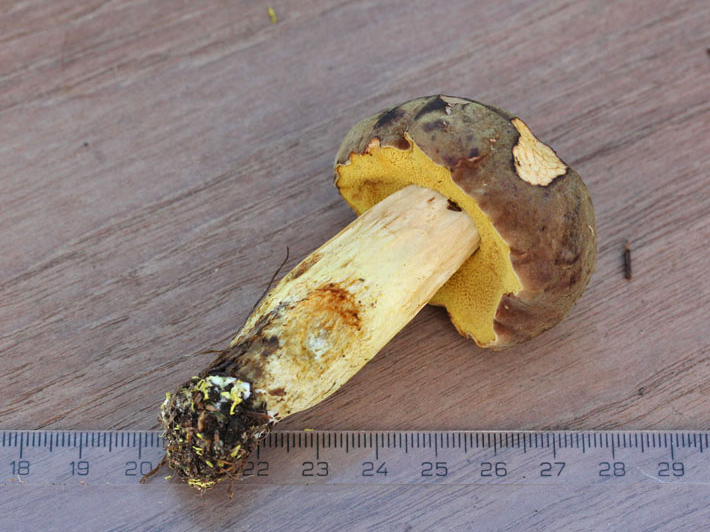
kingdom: Fungi
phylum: Basidiomycota
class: Agaricomycetes
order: Boletales
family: Boletaceae
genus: Xerocomus
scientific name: Xerocomus ferrugineus
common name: vaskeskinds-rørhat
